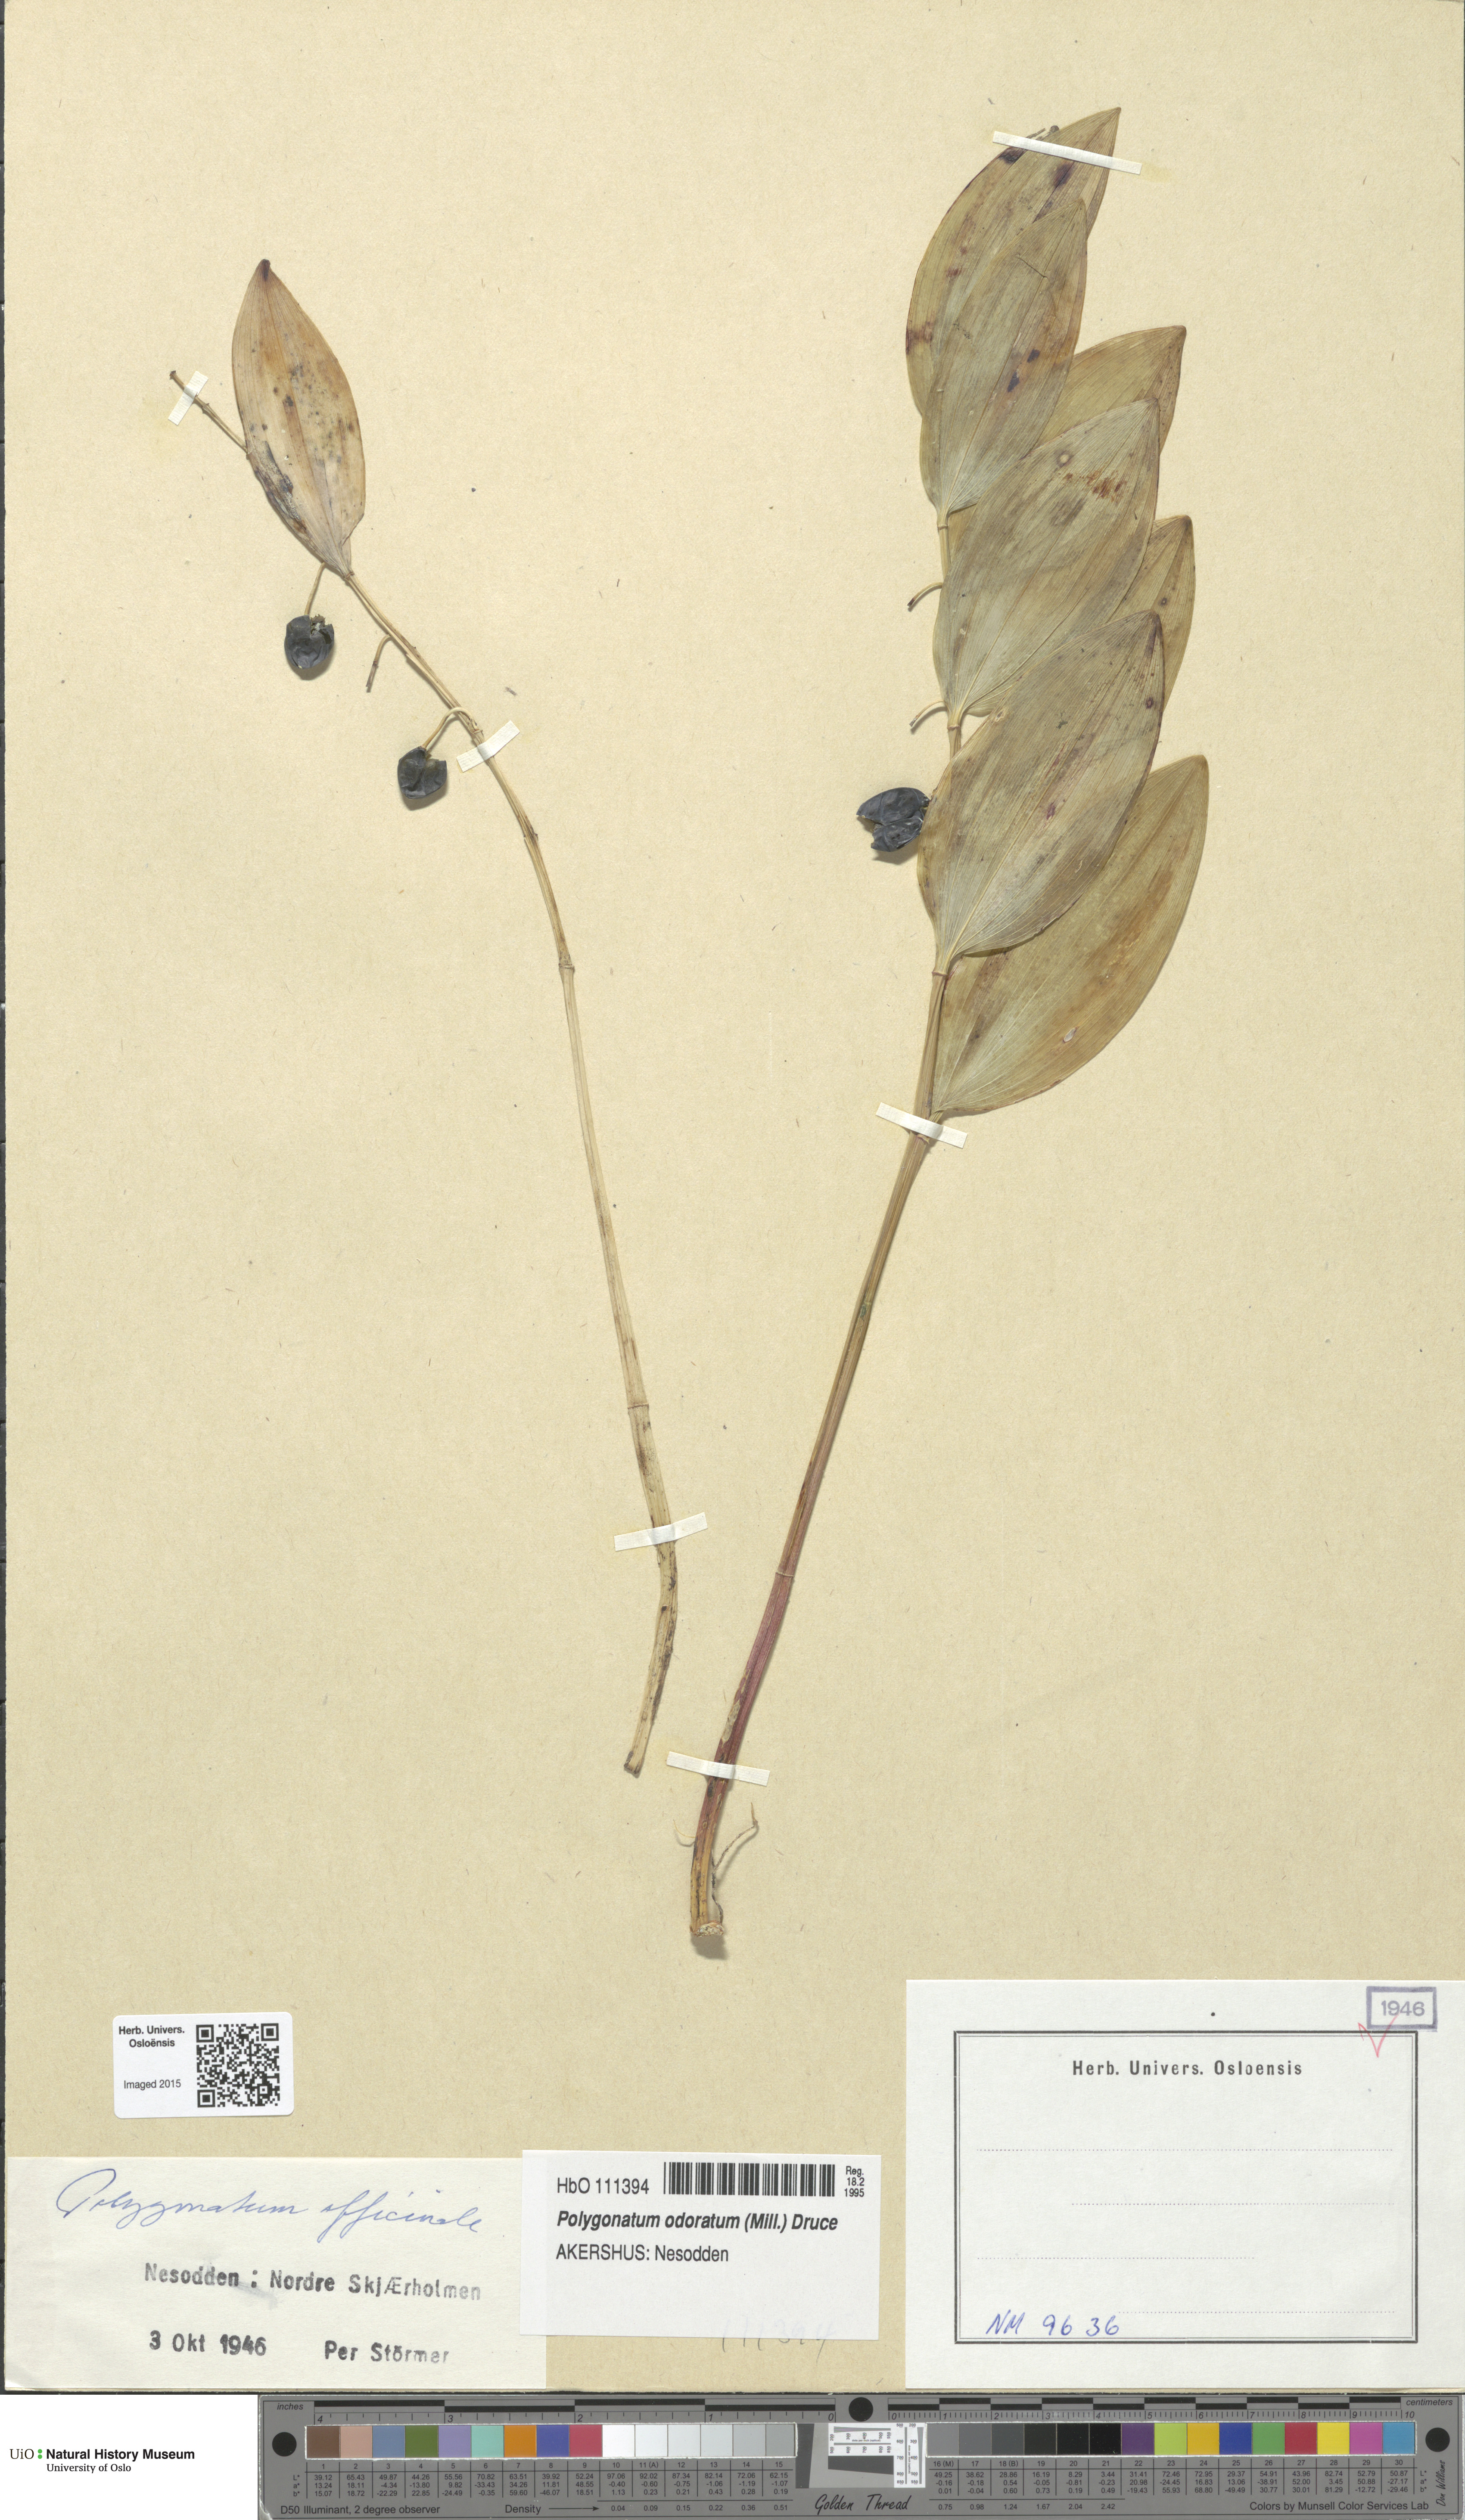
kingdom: Plantae
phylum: Tracheophyta
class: Liliopsida
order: Asparagales
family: Asparagaceae
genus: Polygonatum
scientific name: Polygonatum odoratum
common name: Angular solomon's-seal
